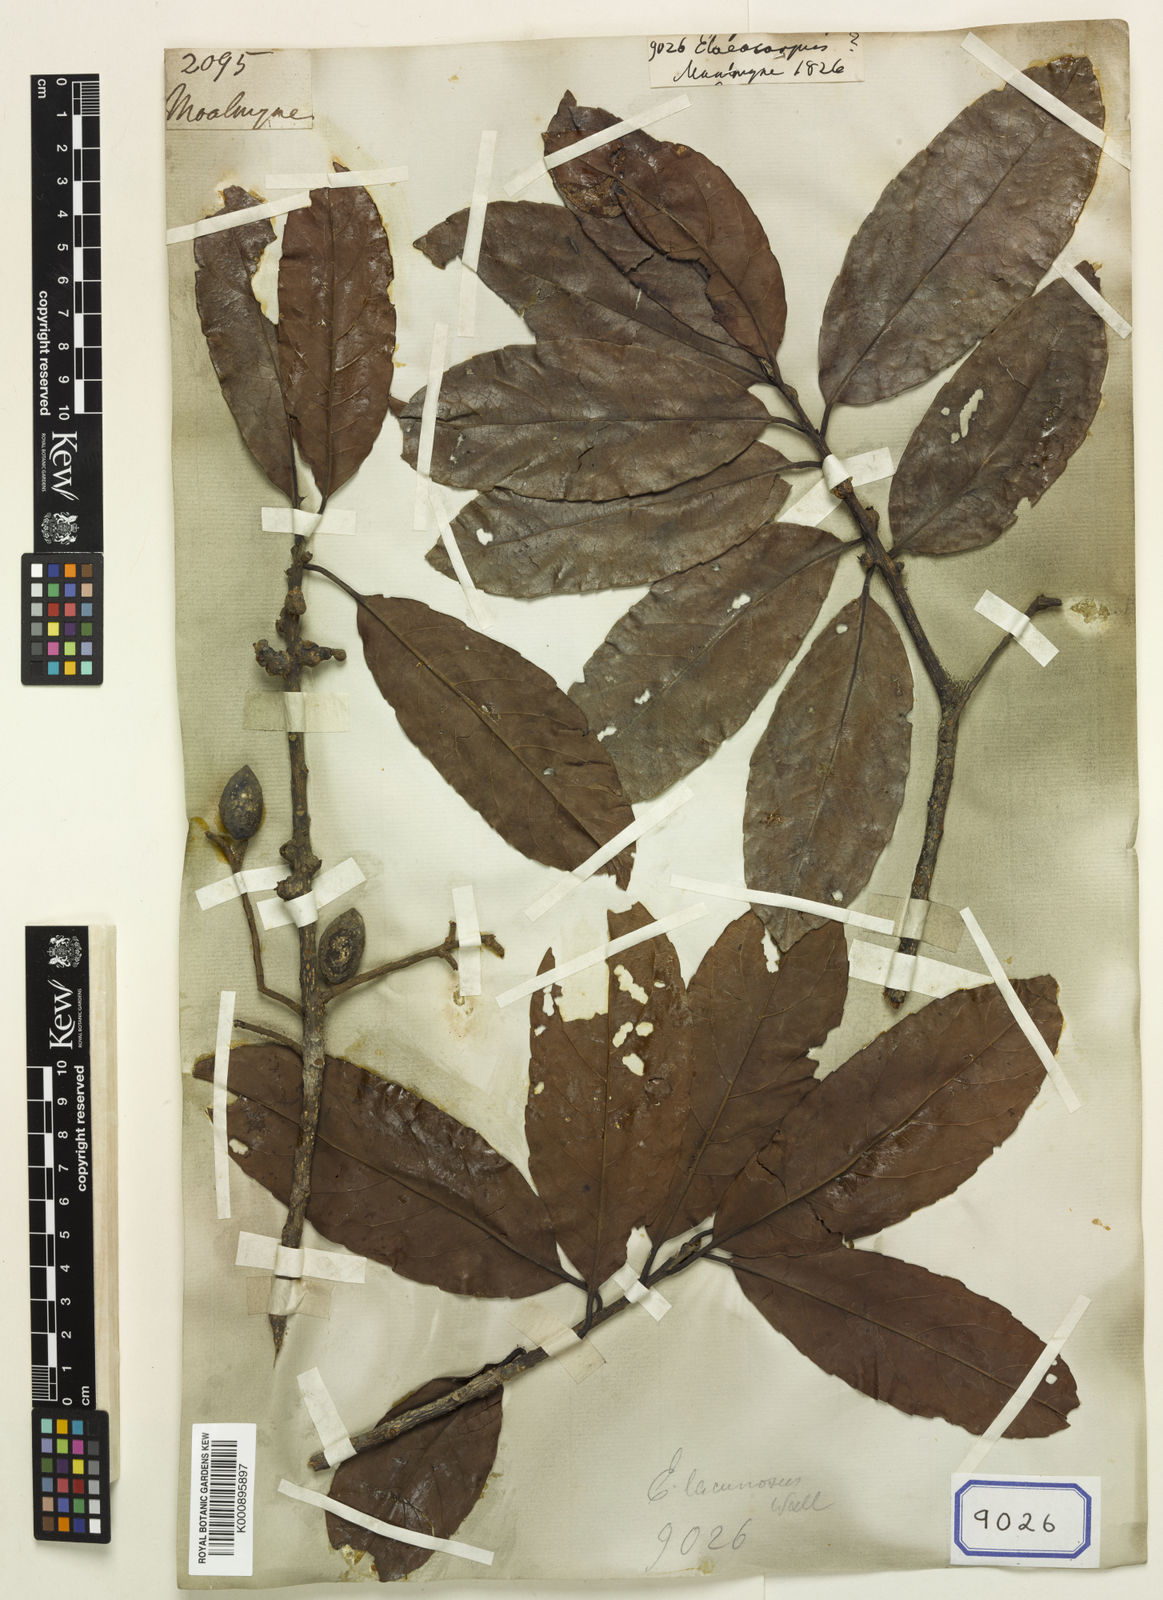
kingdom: Plantae
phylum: Tracheophyta
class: Magnoliopsida
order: Oxalidales
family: Elaeocarpaceae
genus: Elaeocarpus
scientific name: Elaeocarpus
